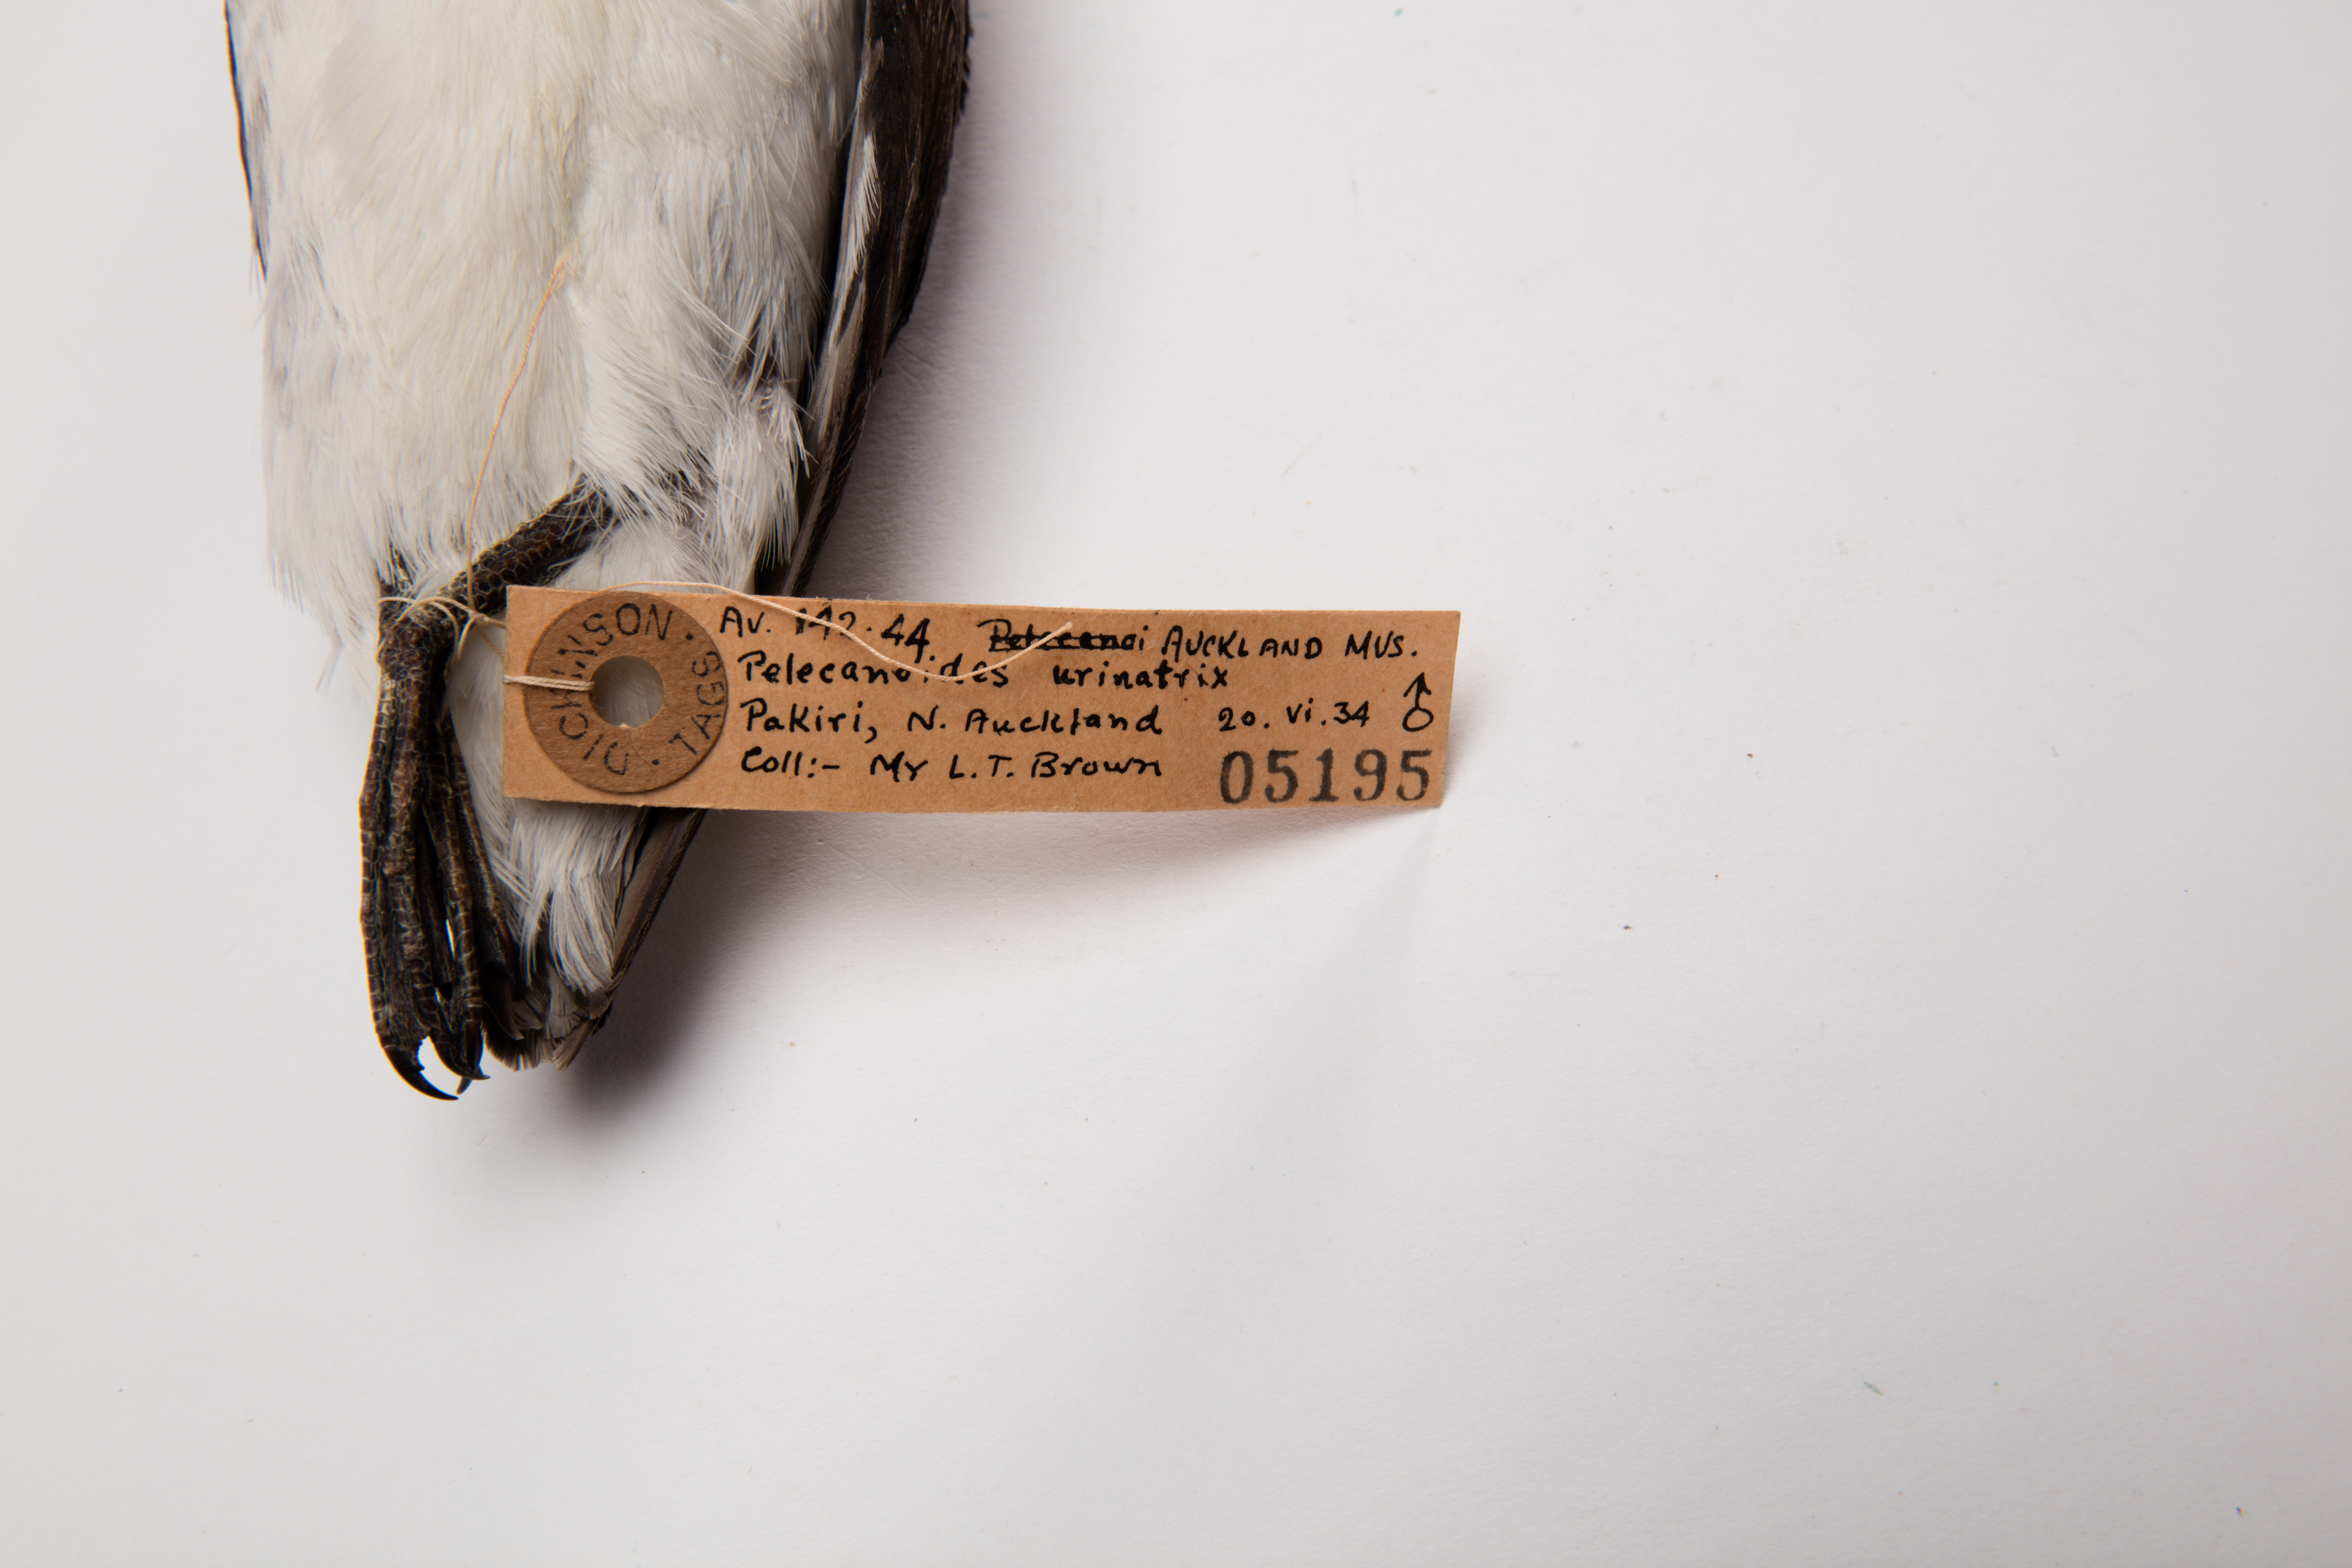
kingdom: Animalia
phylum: Chordata
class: Aves
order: Procellariiformes
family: Pelecanoididae
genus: Pelecanoides
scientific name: Pelecanoides urinatrix
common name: Common diving-petrel
